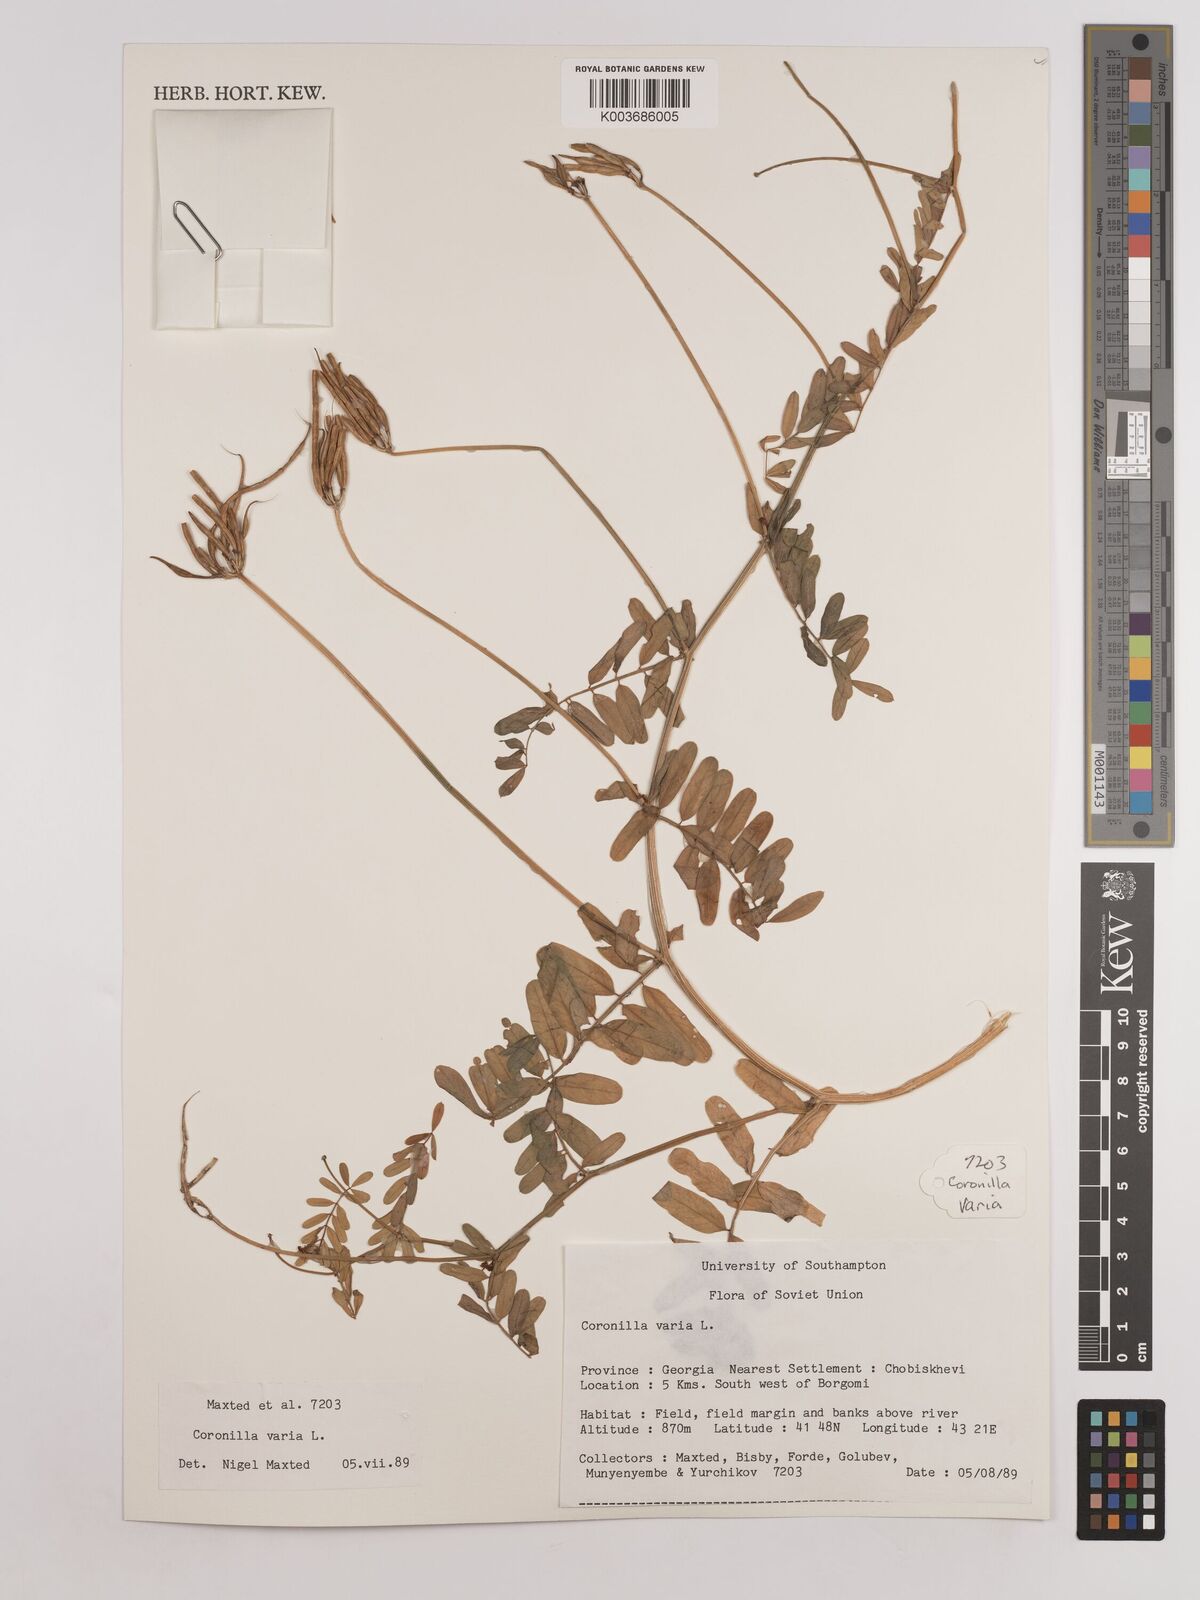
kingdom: Plantae
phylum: Tracheophyta
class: Magnoliopsida
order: Fabales
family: Fabaceae
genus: Coronilla
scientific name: Coronilla varia
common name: Crownvetch
